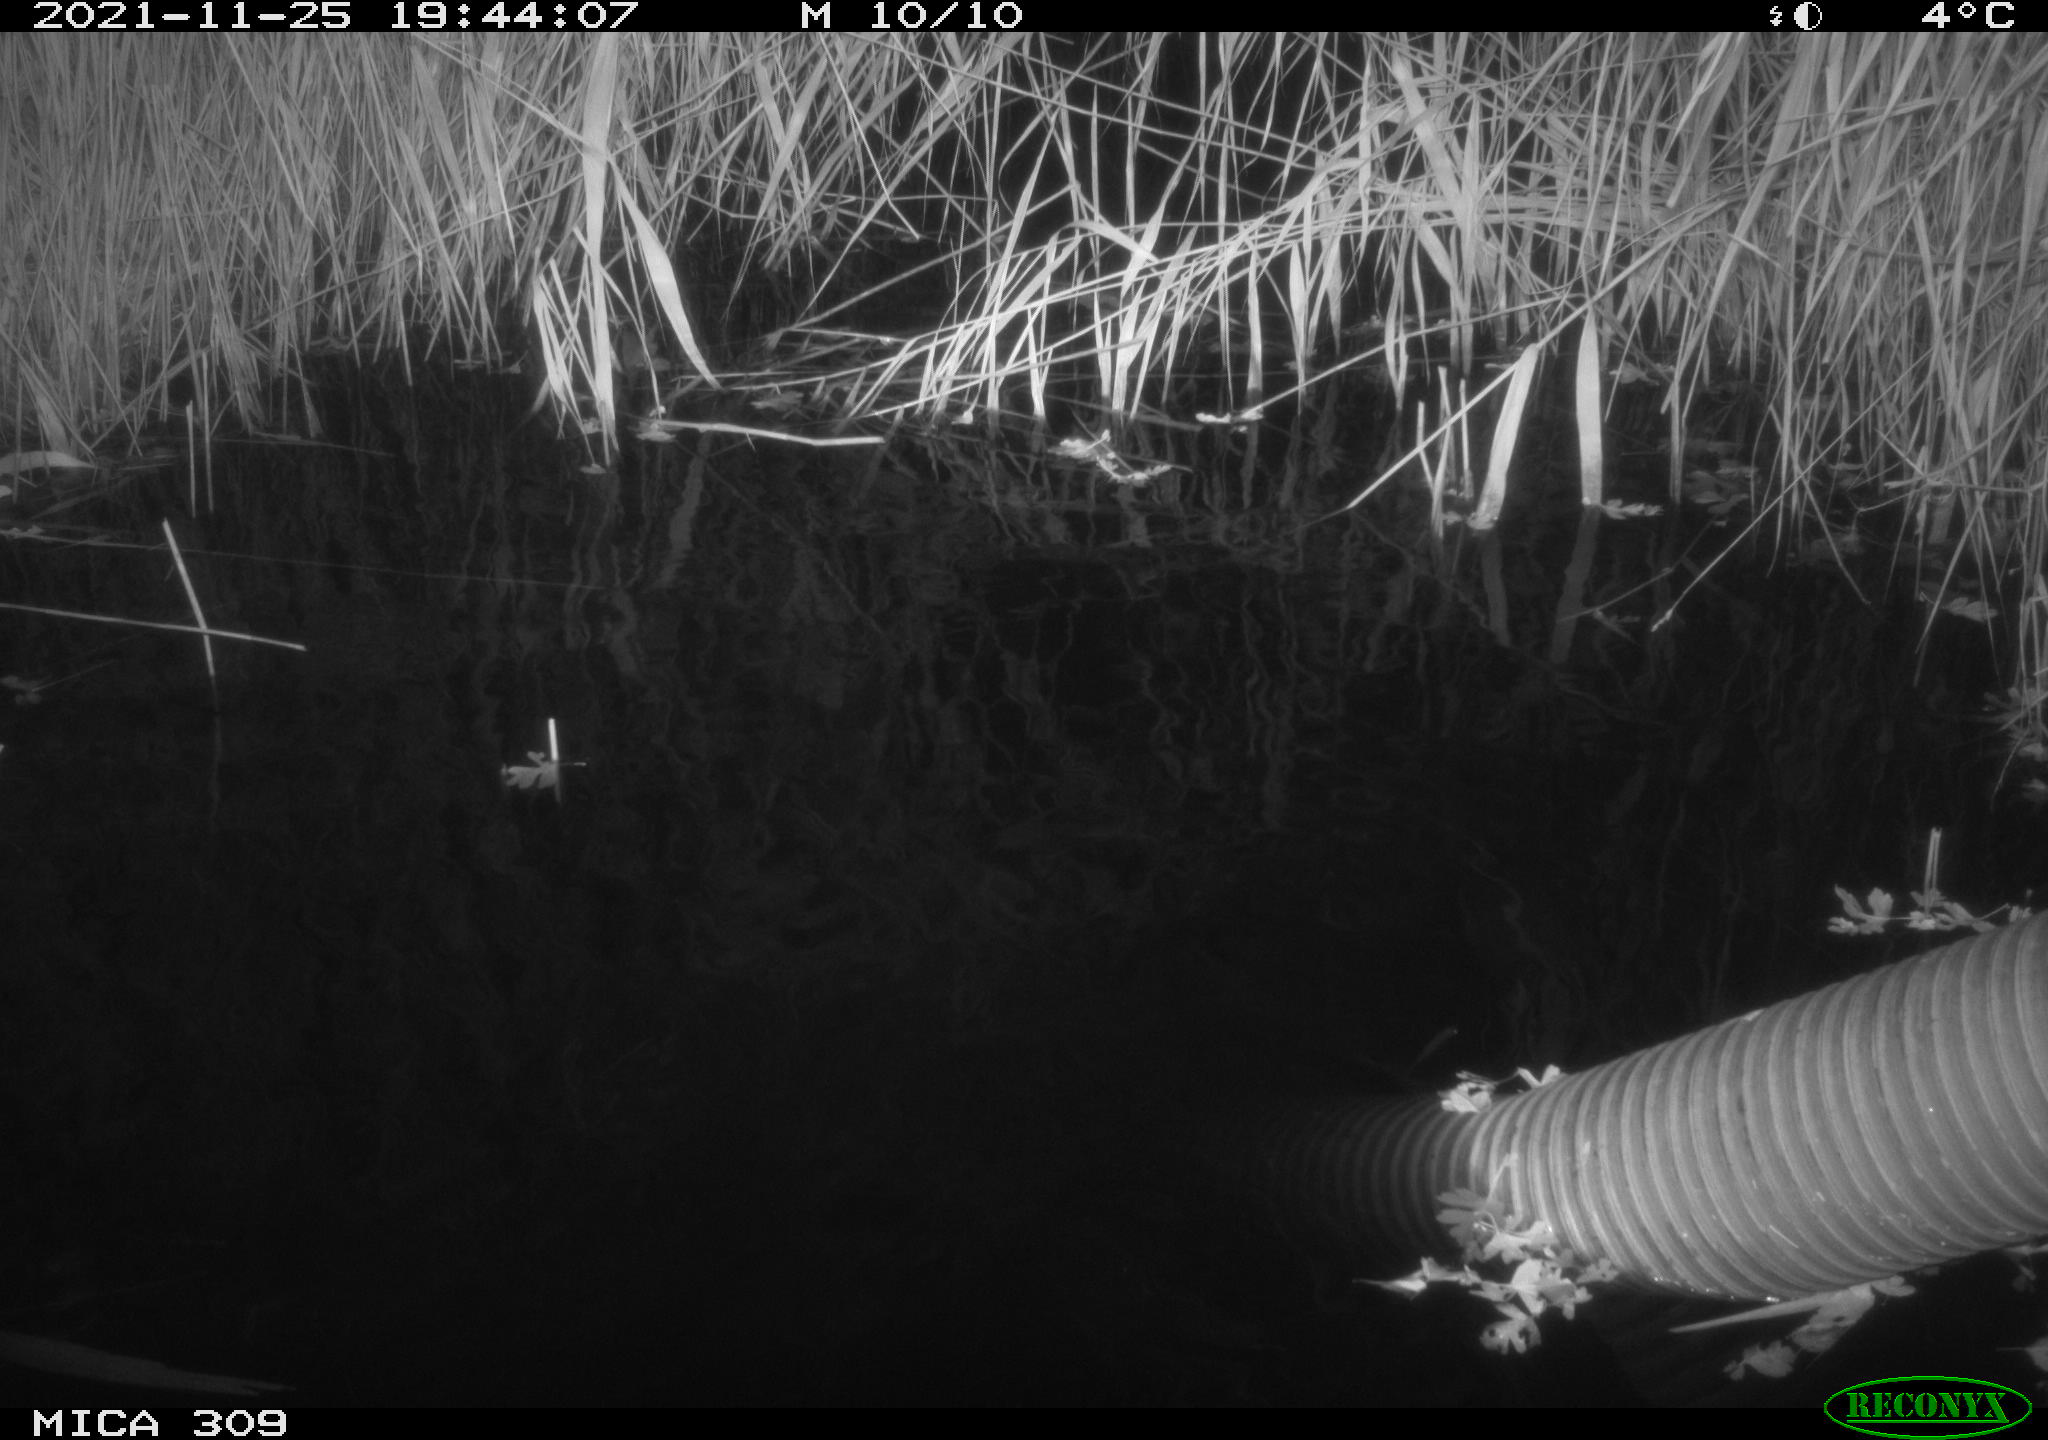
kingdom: Animalia
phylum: Chordata
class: Mammalia
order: Rodentia
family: Muridae
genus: Rattus
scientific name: Rattus norvegicus
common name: Brown rat
